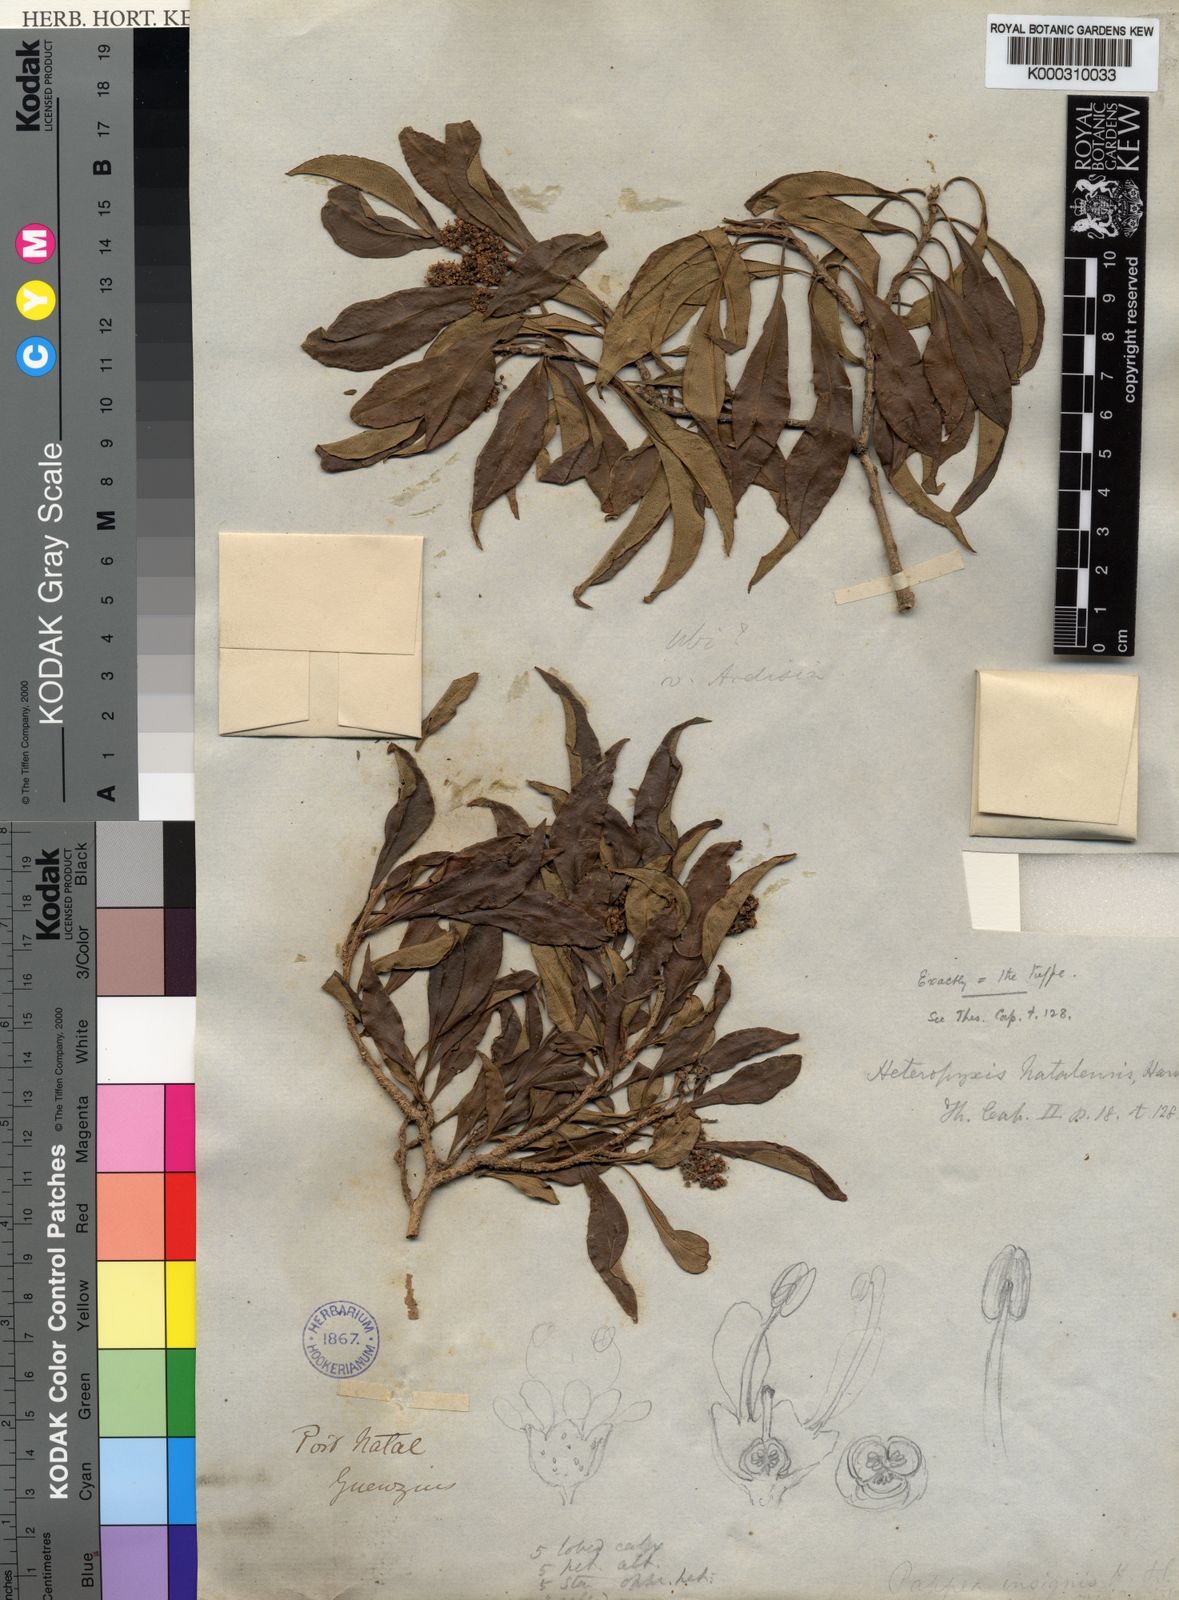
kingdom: Plantae
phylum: Tracheophyta
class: Magnoliopsida
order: Myrtales
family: Myrtaceae
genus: Heteropyxis
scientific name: Heteropyxis natalensis
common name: Lavender tree
